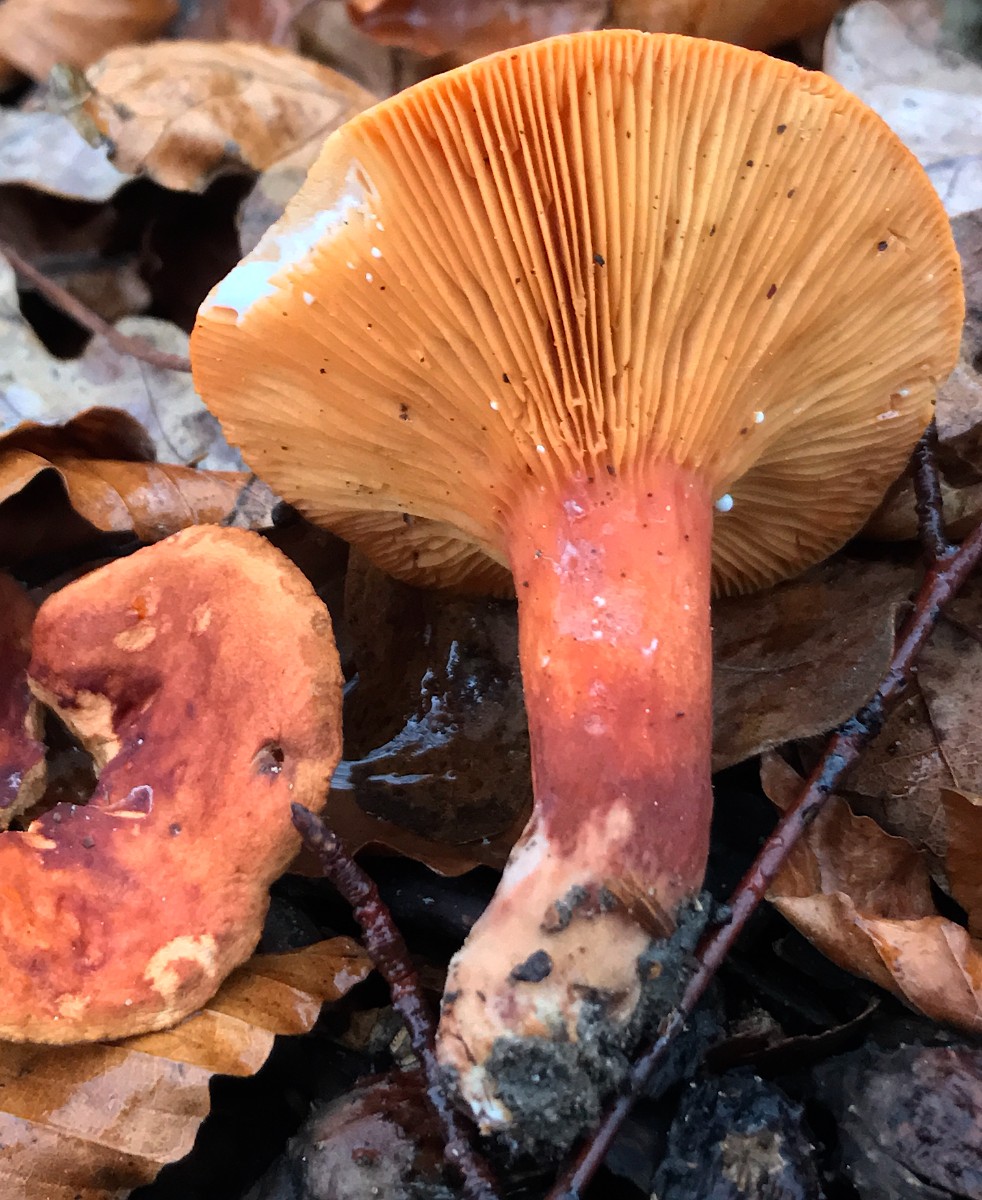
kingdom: Fungi
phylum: Basidiomycota
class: Agaricomycetes
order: Russulales
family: Russulaceae
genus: Lactarius
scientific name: Lactarius fulvissimus
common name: ræve-mælkehat
